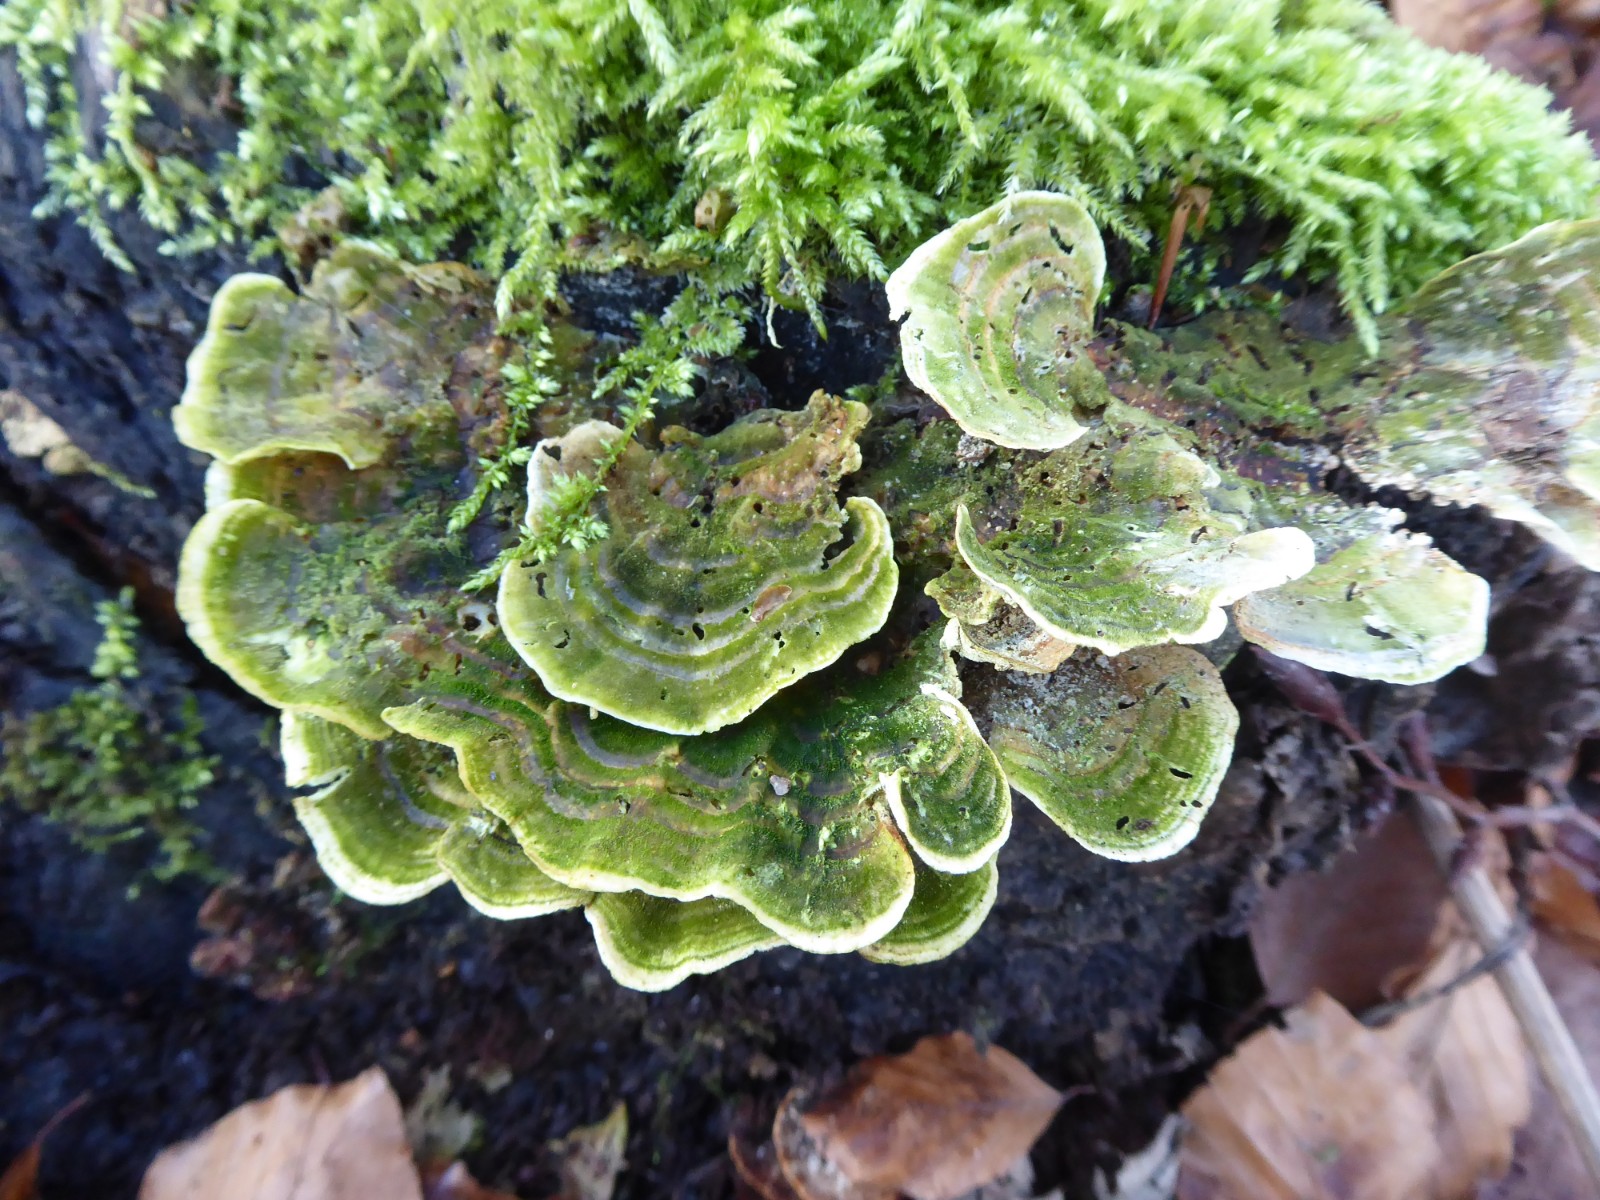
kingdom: Fungi
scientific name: Fungi
